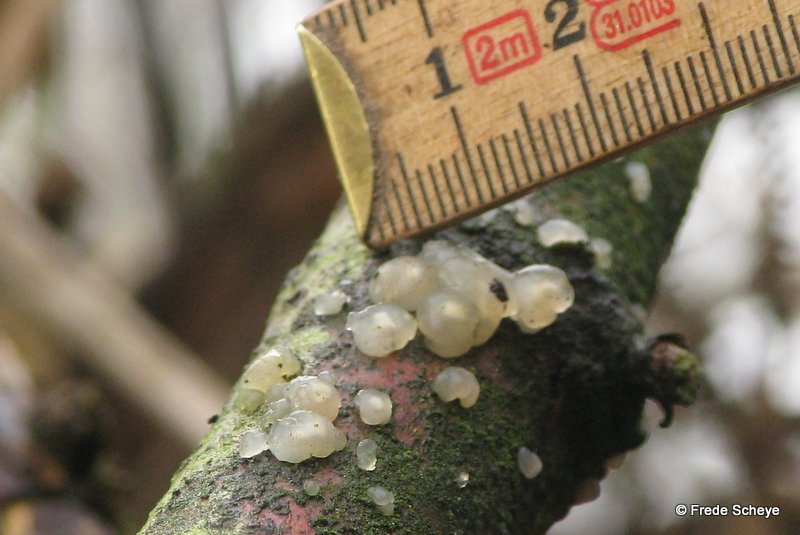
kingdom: Fungi
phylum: Basidiomycota
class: Agaricomycetes
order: Auriculariales
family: Hyaloriaceae
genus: Myxarium
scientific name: Myxarium nucleatum
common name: klar bævretop
